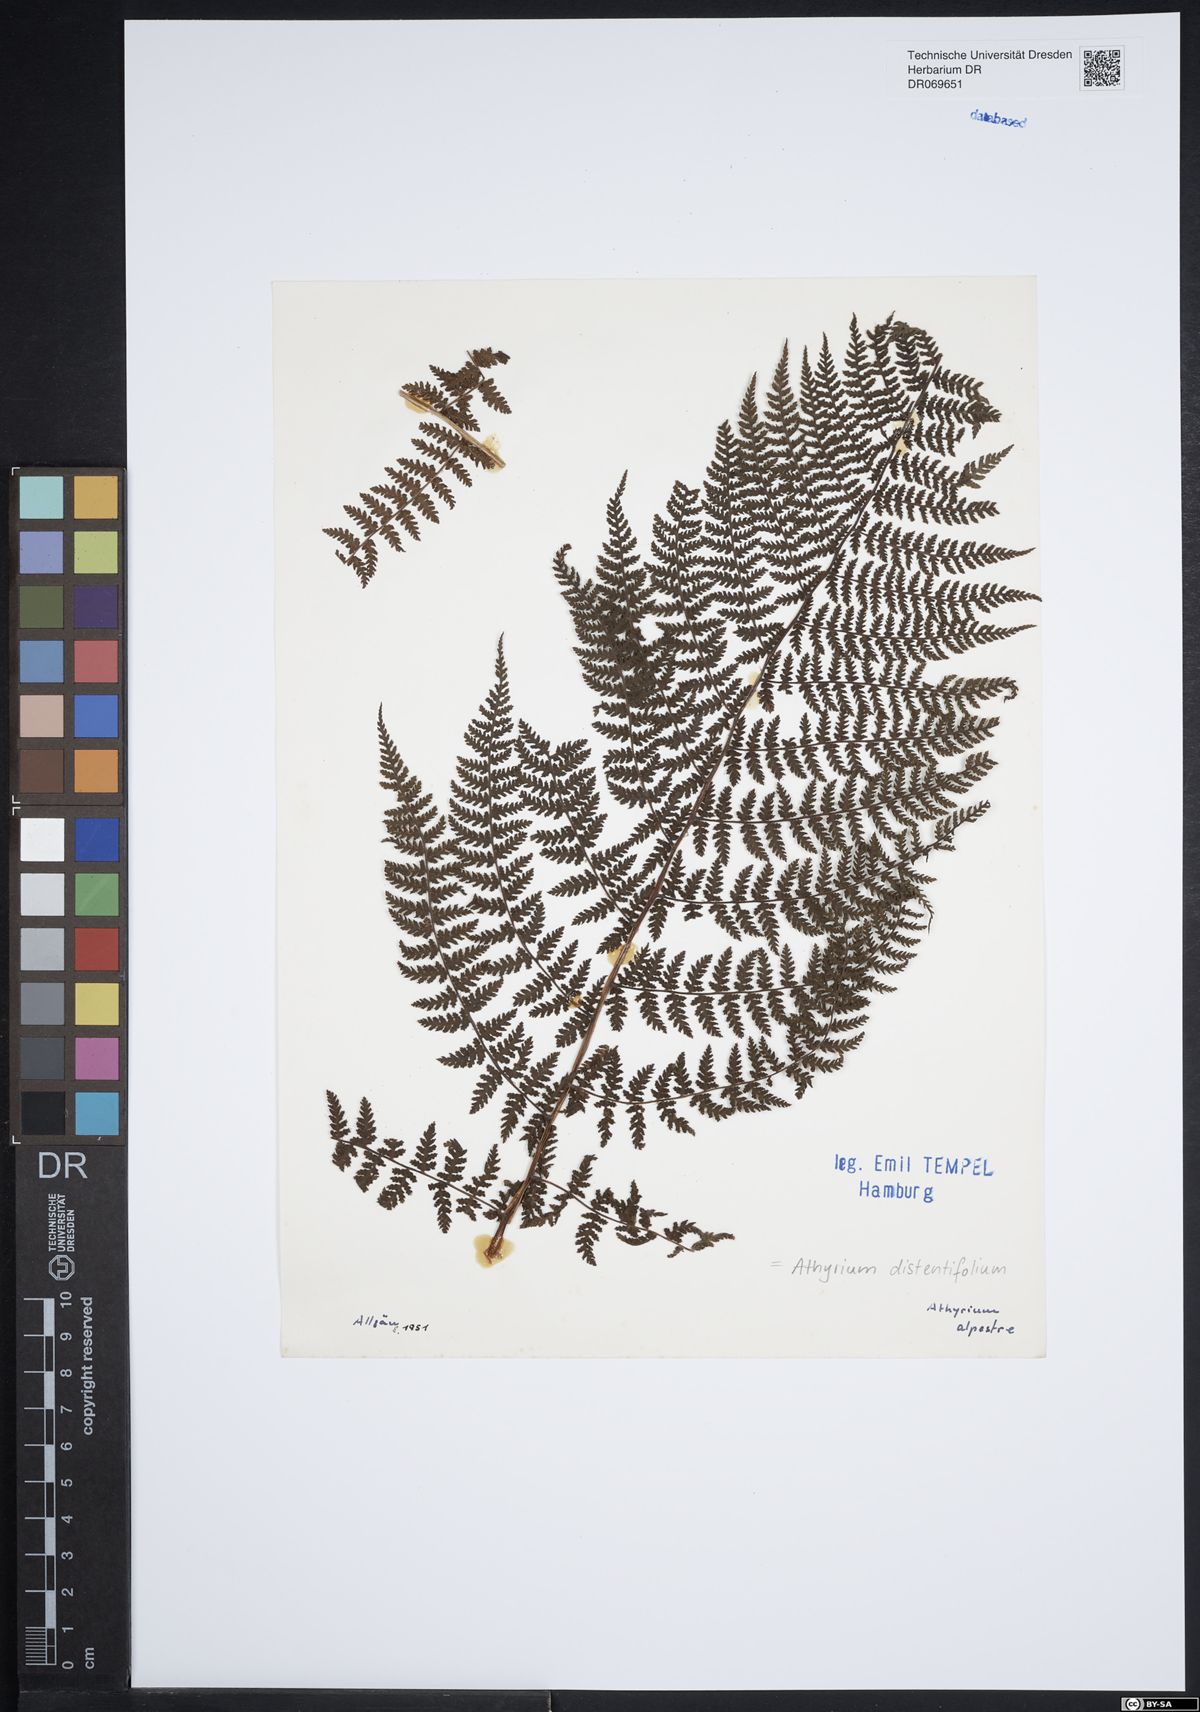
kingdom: Plantae
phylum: Tracheophyta
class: Polypodiopsida
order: Polypodiales
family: Athyriaceae
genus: Pseudathyrium
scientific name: Pseudathyrium alpestre
